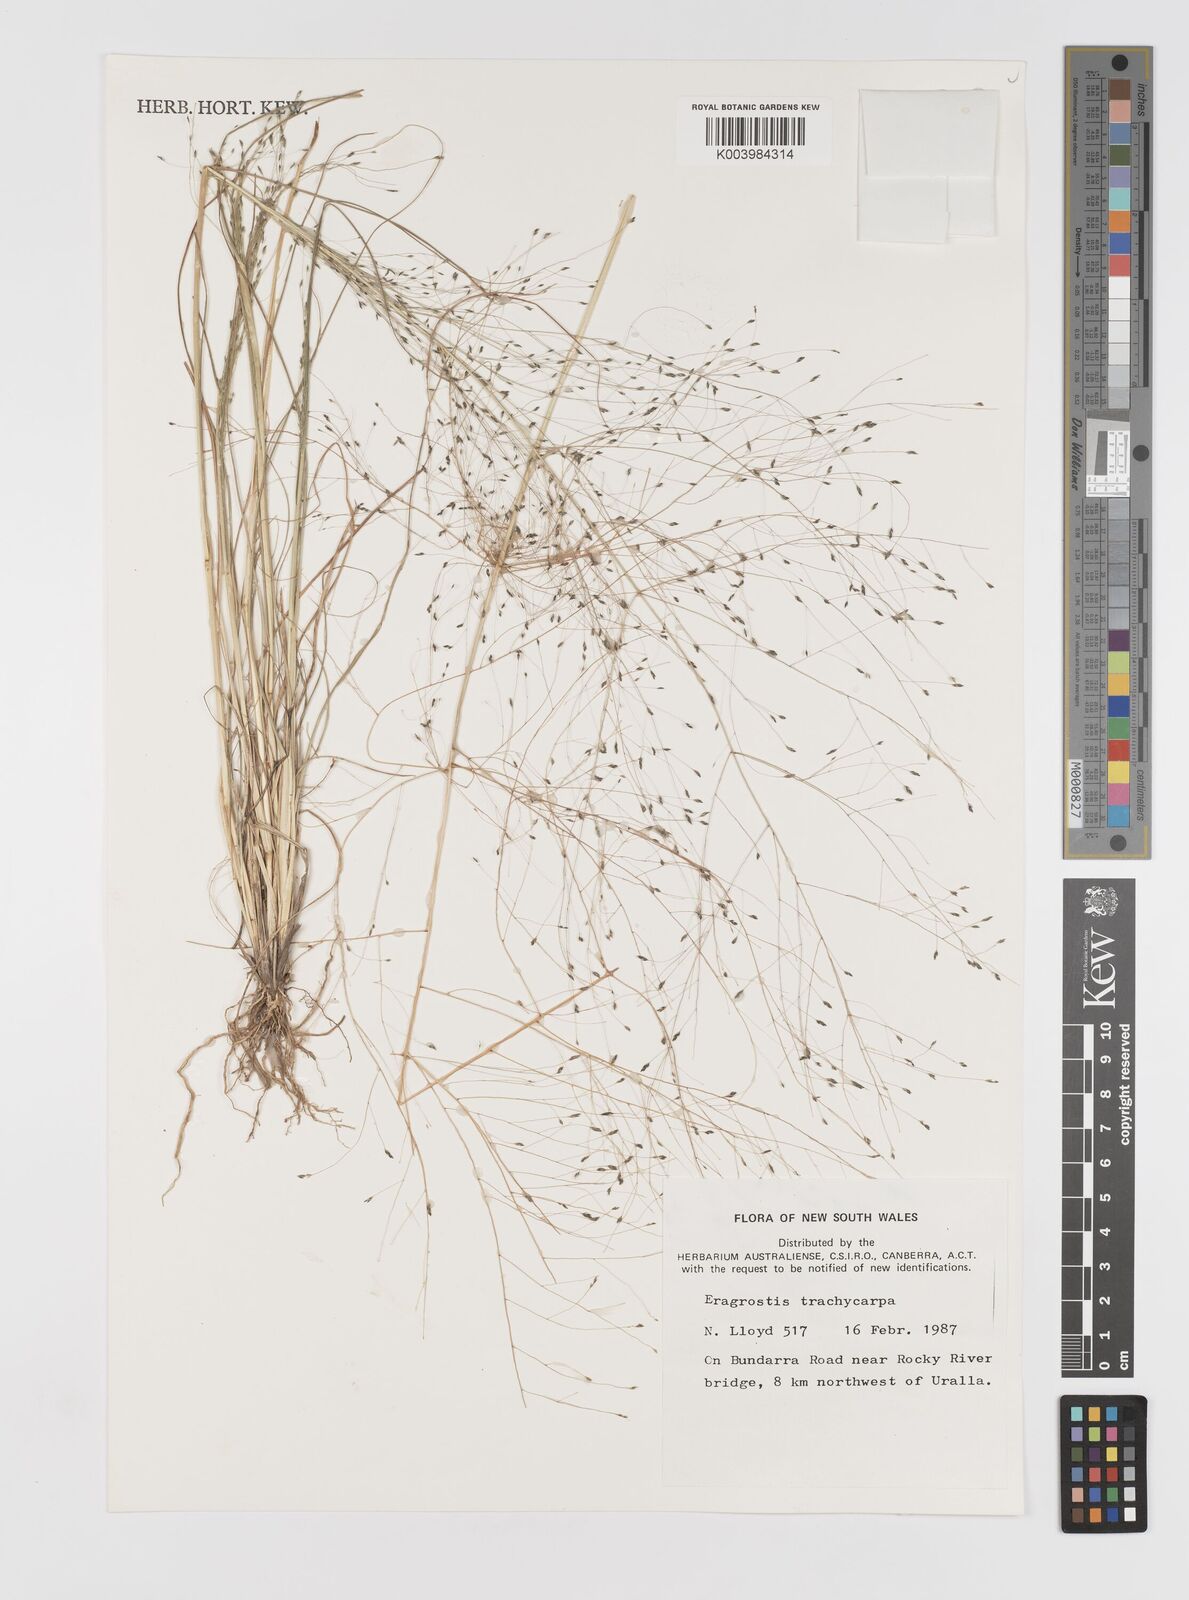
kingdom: Plantae
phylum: Tracheophyta
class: Liliopsida
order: Poales
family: Poaceae
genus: Eragrostis
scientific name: Eragrostis trachycarpa
